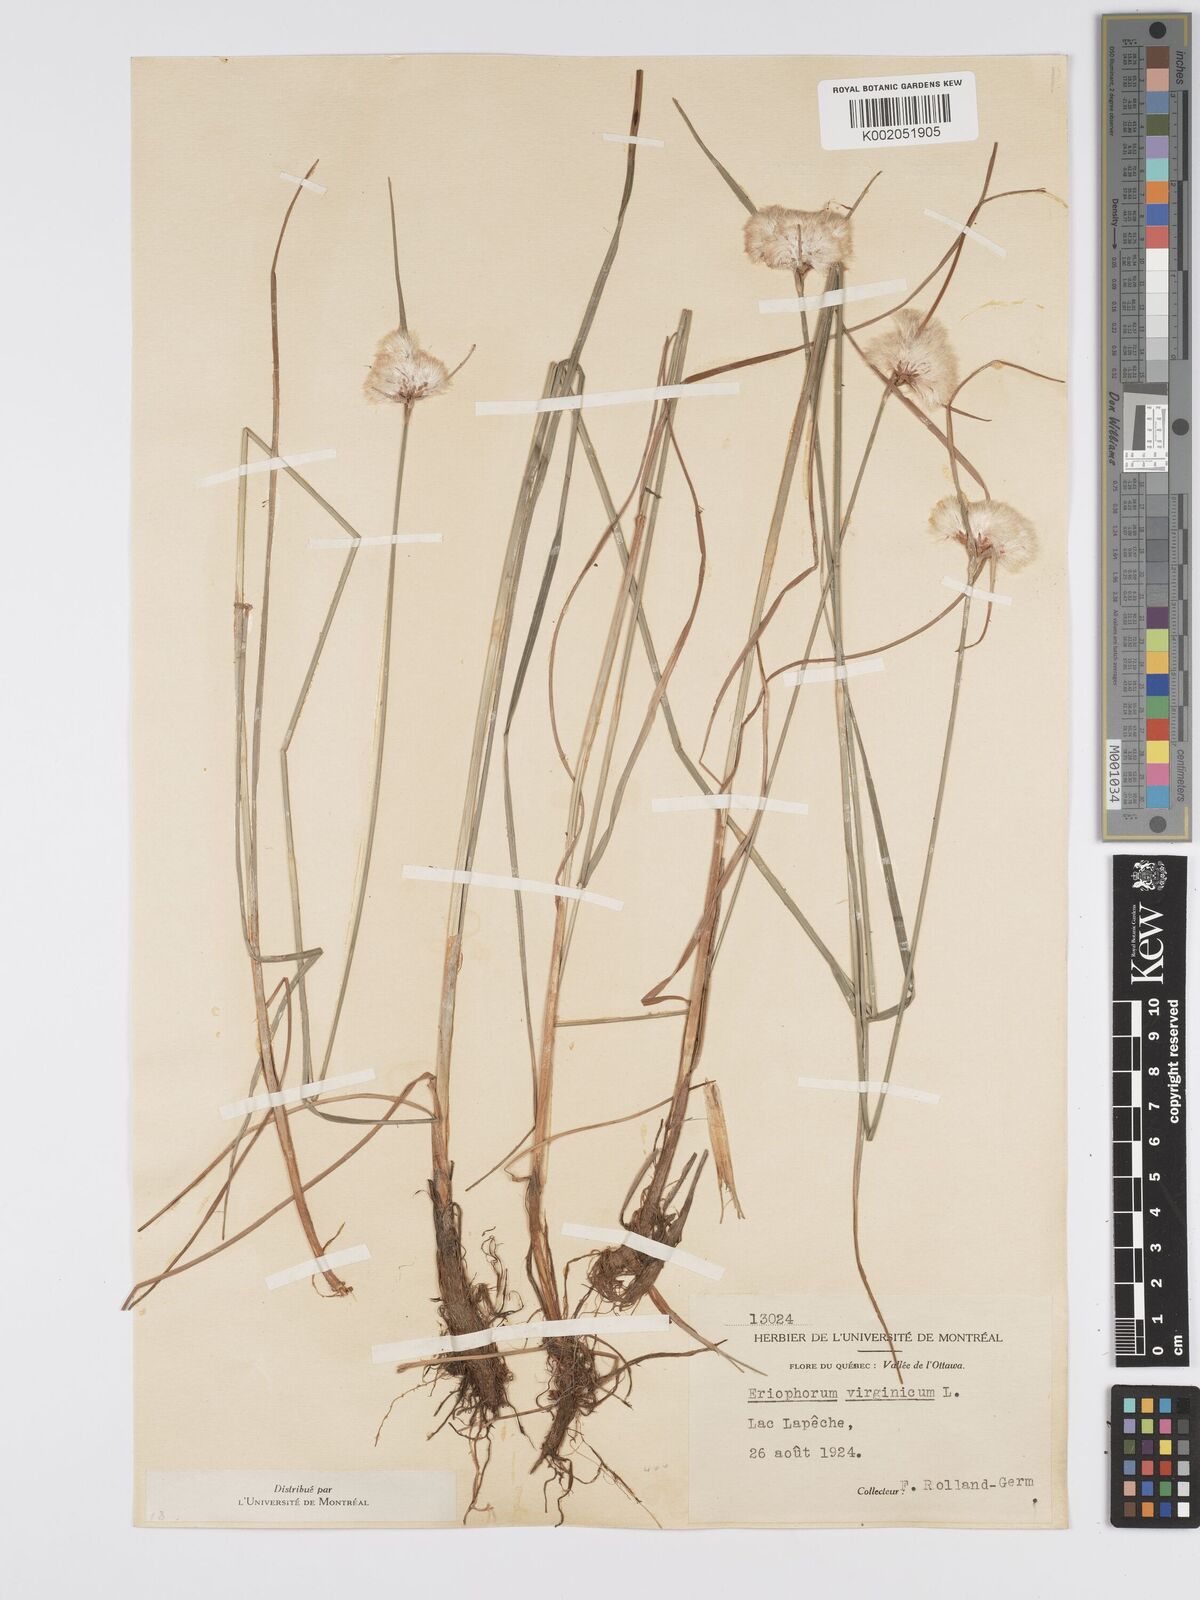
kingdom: Plantae
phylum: Tracheophyta
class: Liliopsida
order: Poales
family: Cyperaceae
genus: Eriophorum
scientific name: Eriophorum virginicum
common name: Tawny cottongrass
